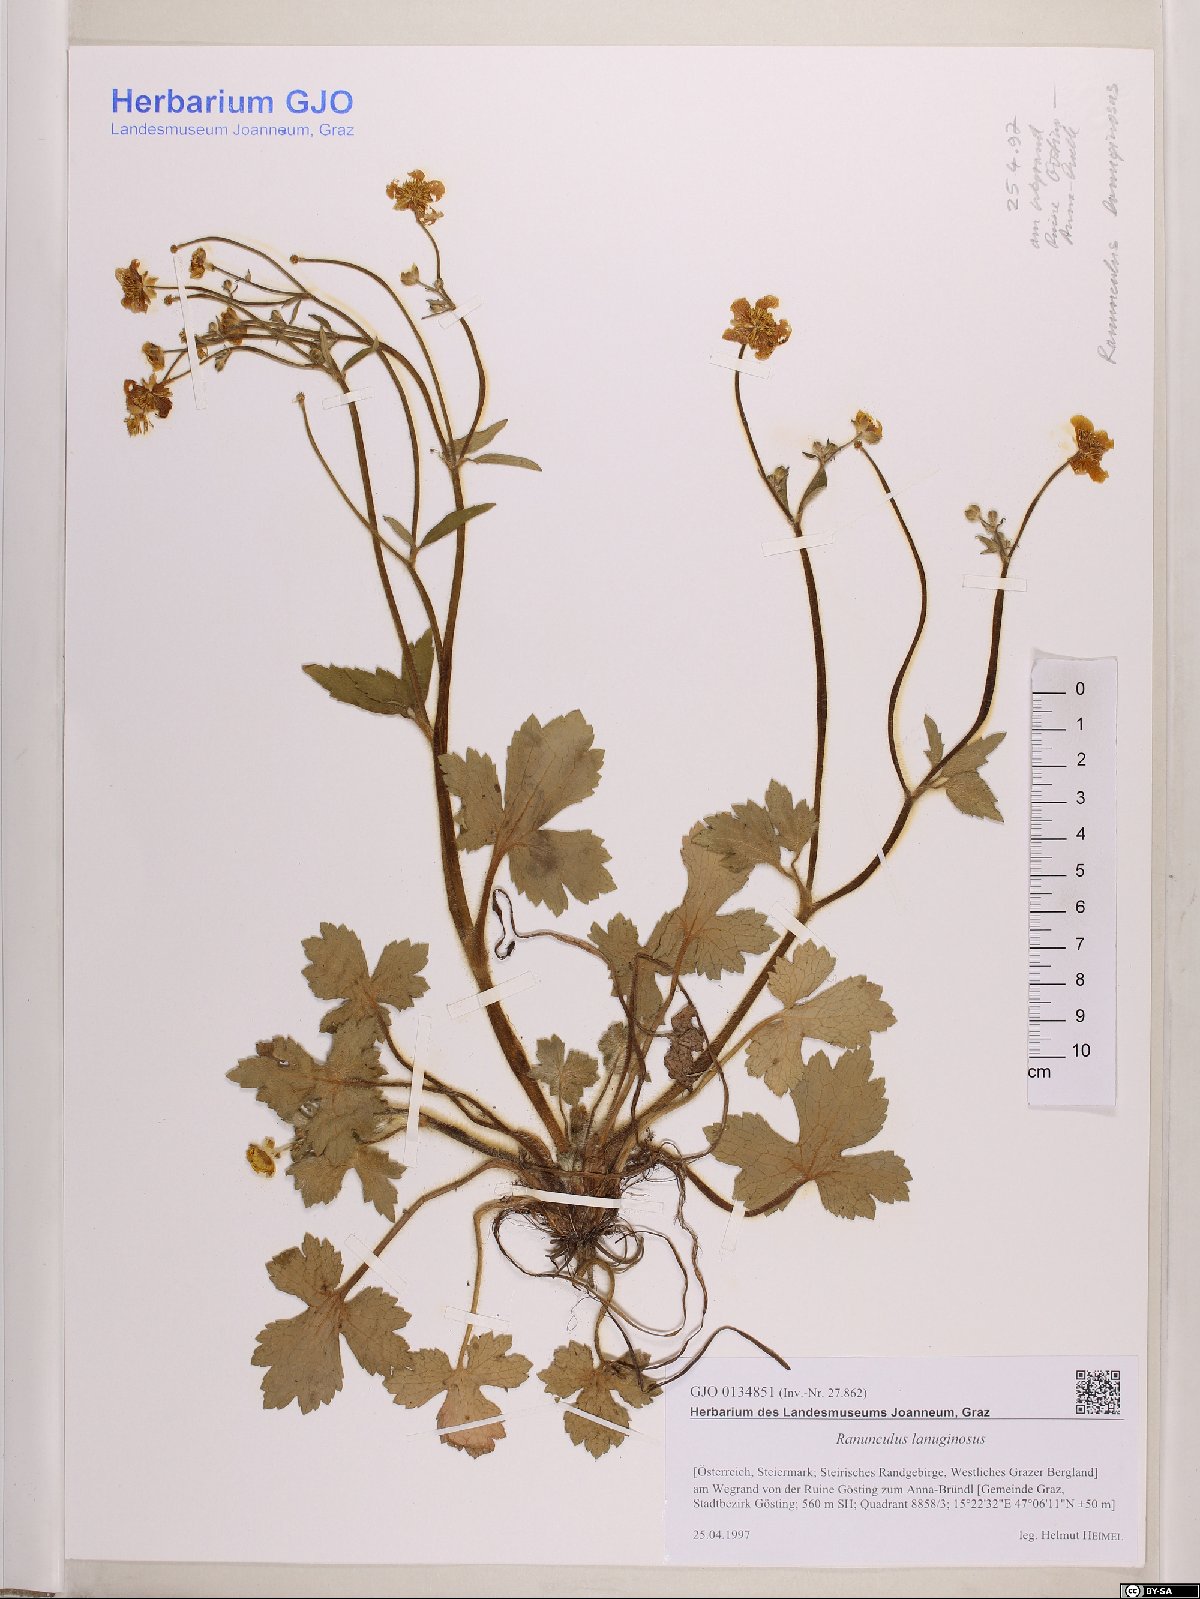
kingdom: Plantae
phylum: Tracheophyta
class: Magnoliopsida
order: Ranunculales
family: Ranunculaceae
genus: Ranunculus
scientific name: Ranunculus lanuginosus
